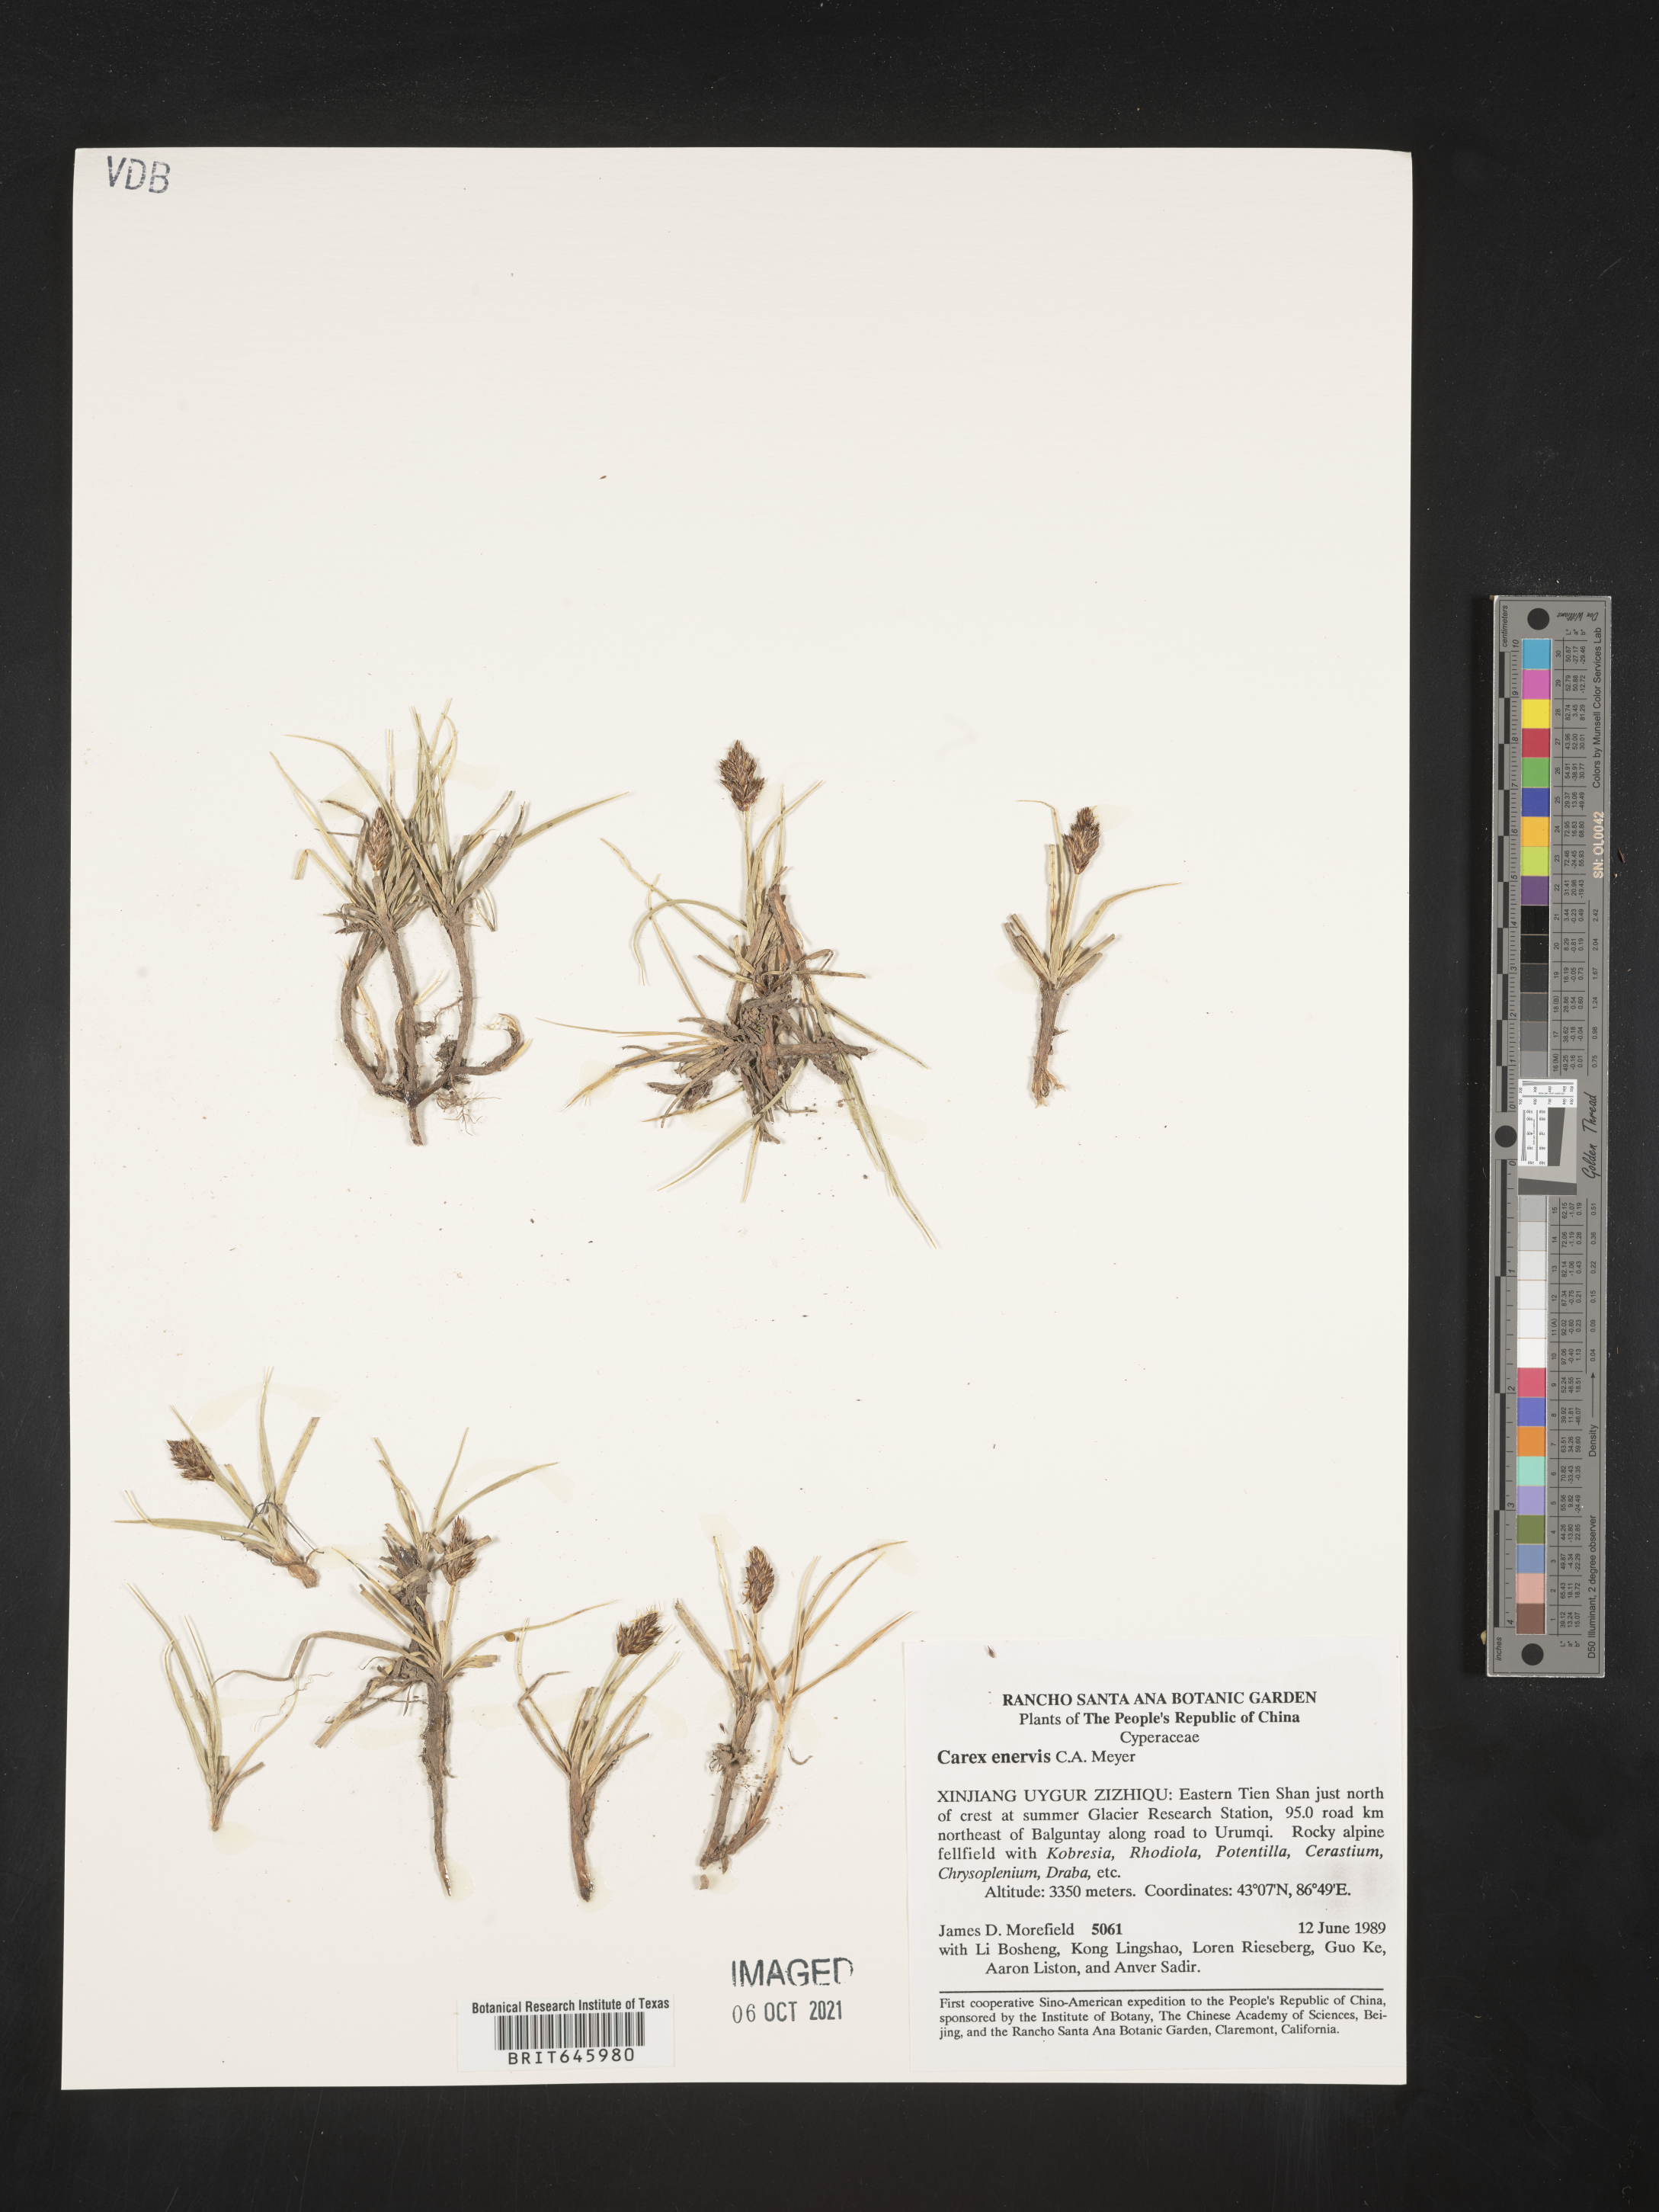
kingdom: Plantae
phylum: Tracheophyta
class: Liliopsida
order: Poales
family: Cyperaceae
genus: Carex
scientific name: Carex enervis
